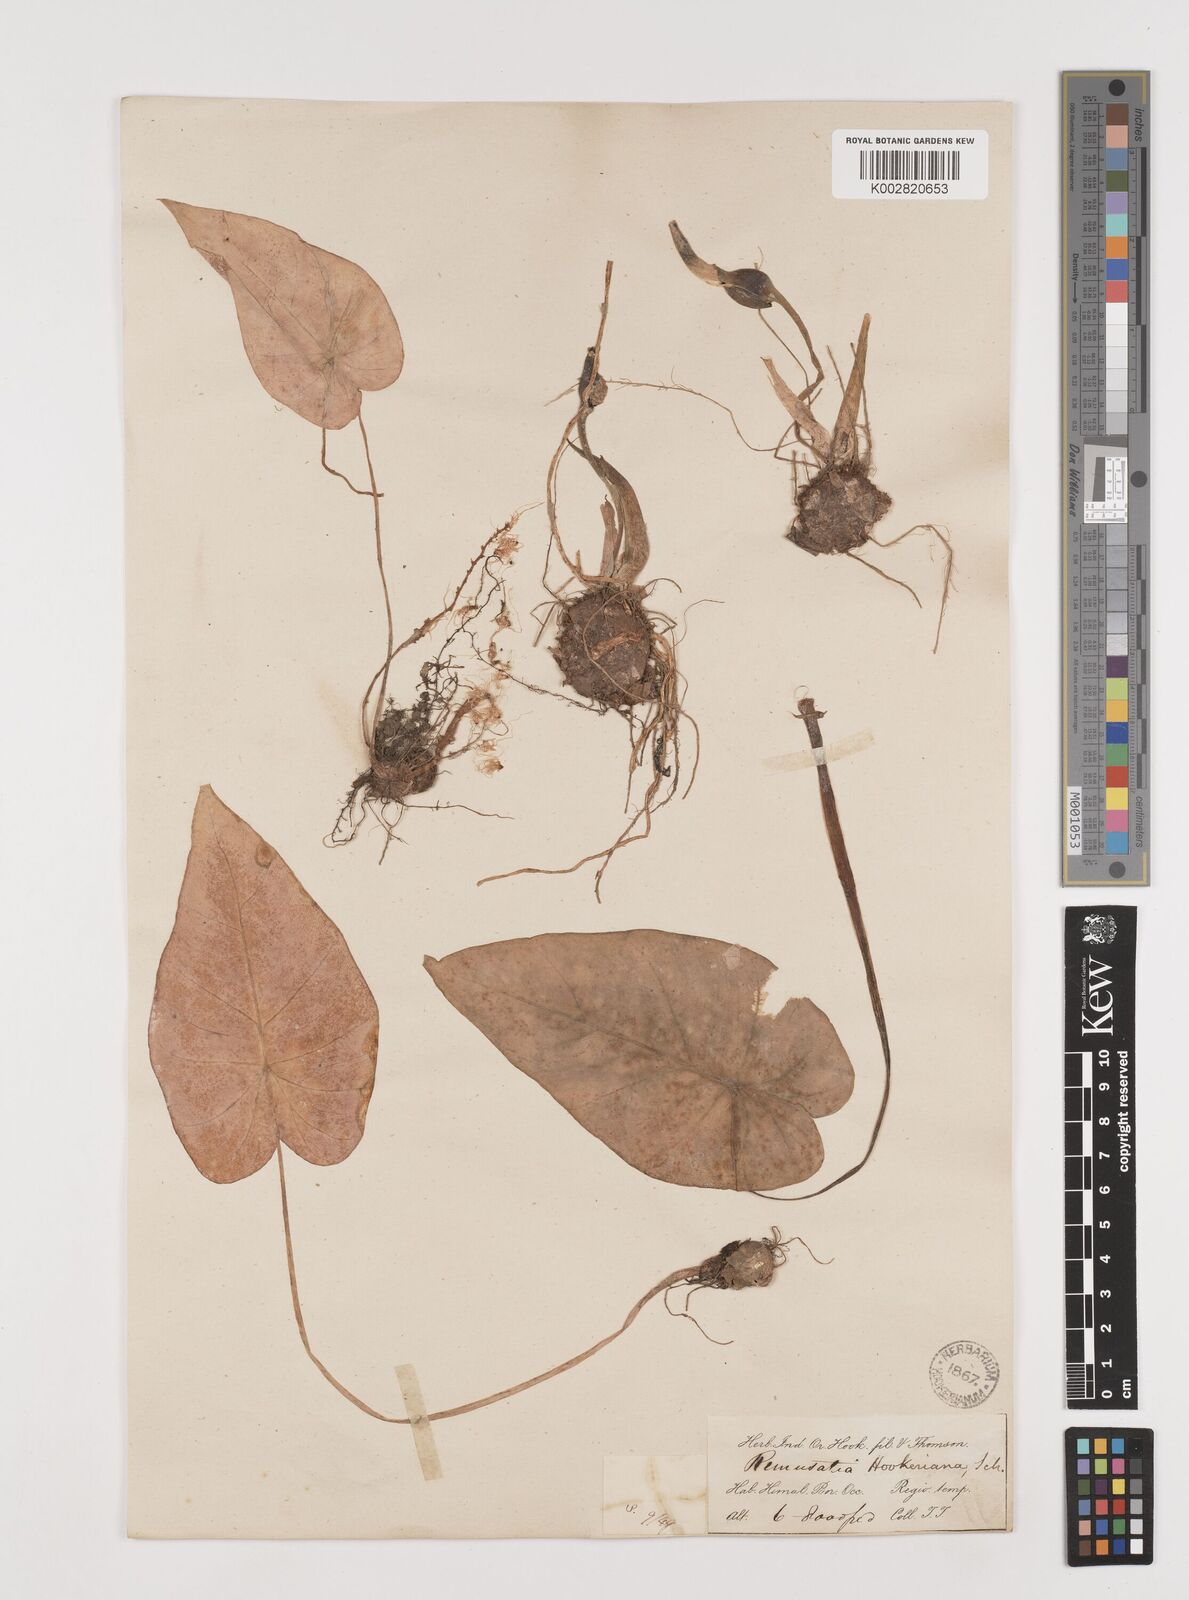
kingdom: Plantae
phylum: Tracheophyta
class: Liliopsida
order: Alismatales
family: Araceae
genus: Remusatia
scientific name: Remusatia hookeriana
